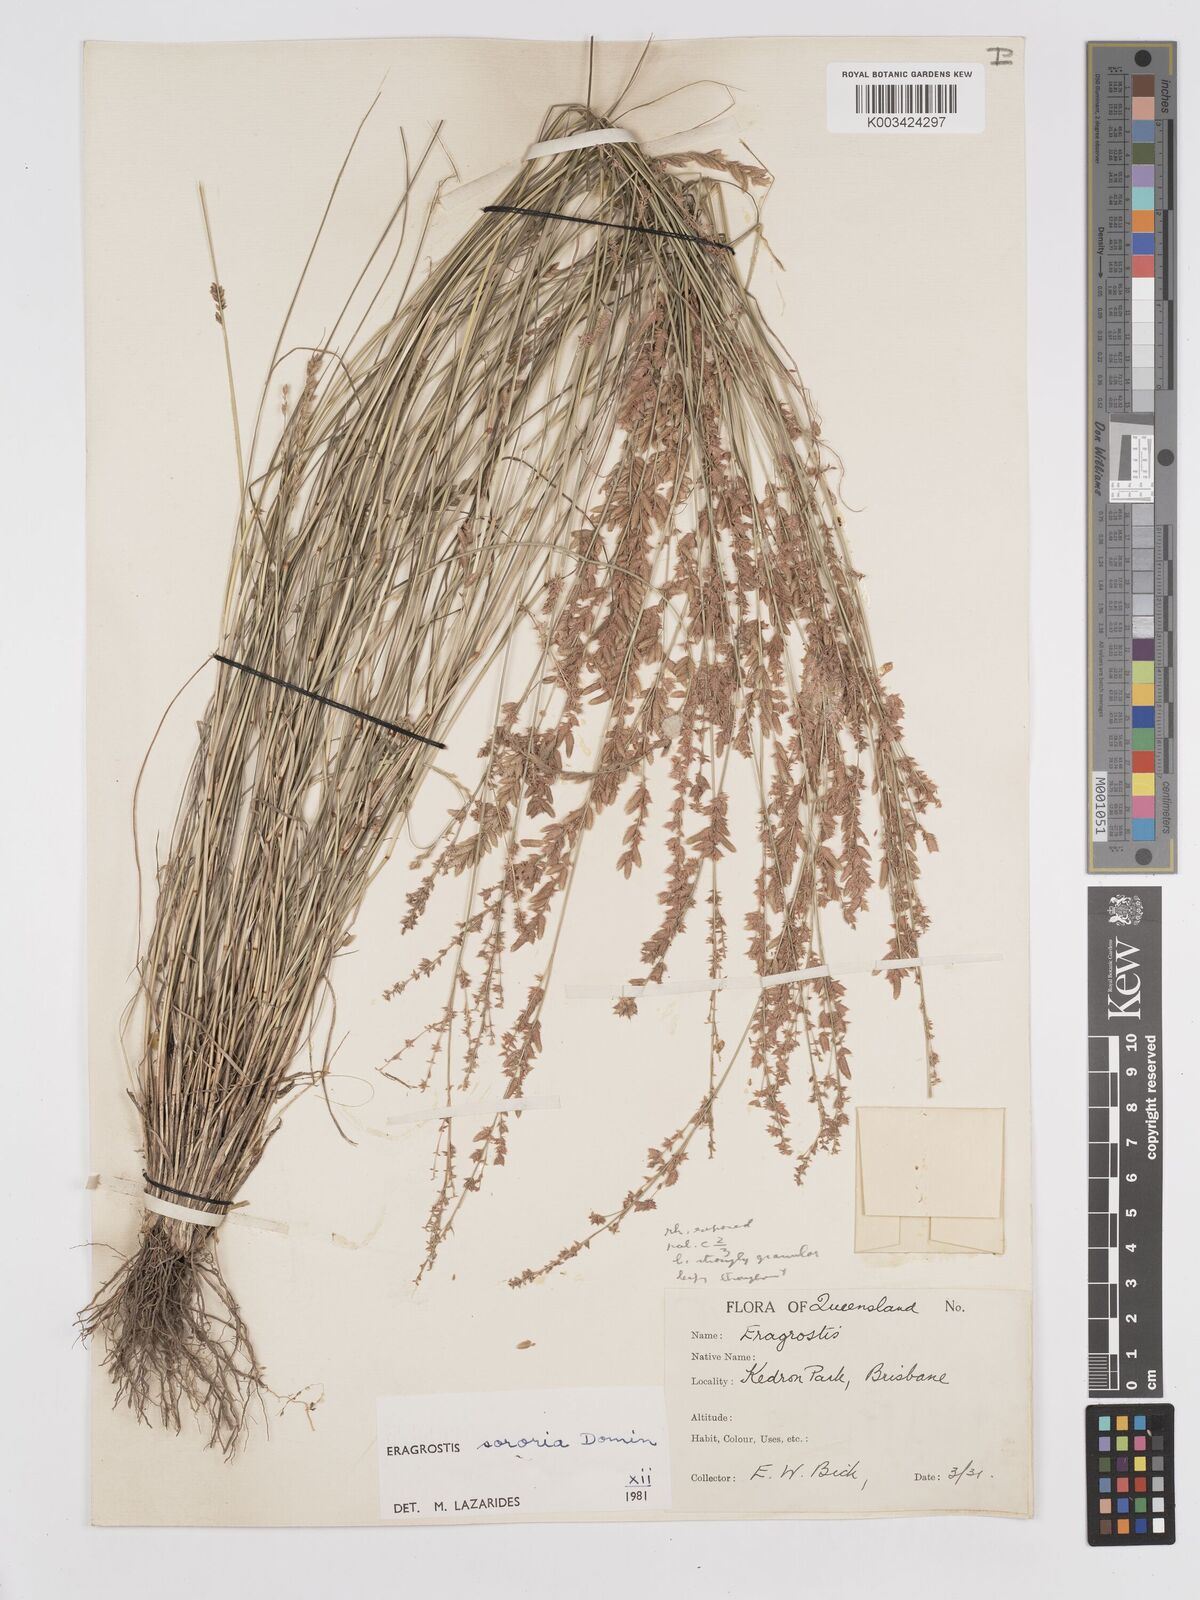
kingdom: Plantae
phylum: Tracheophyta
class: Liliopsida
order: Poales
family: Poaceae
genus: Eragrostis
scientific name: Eragrostis sororia
